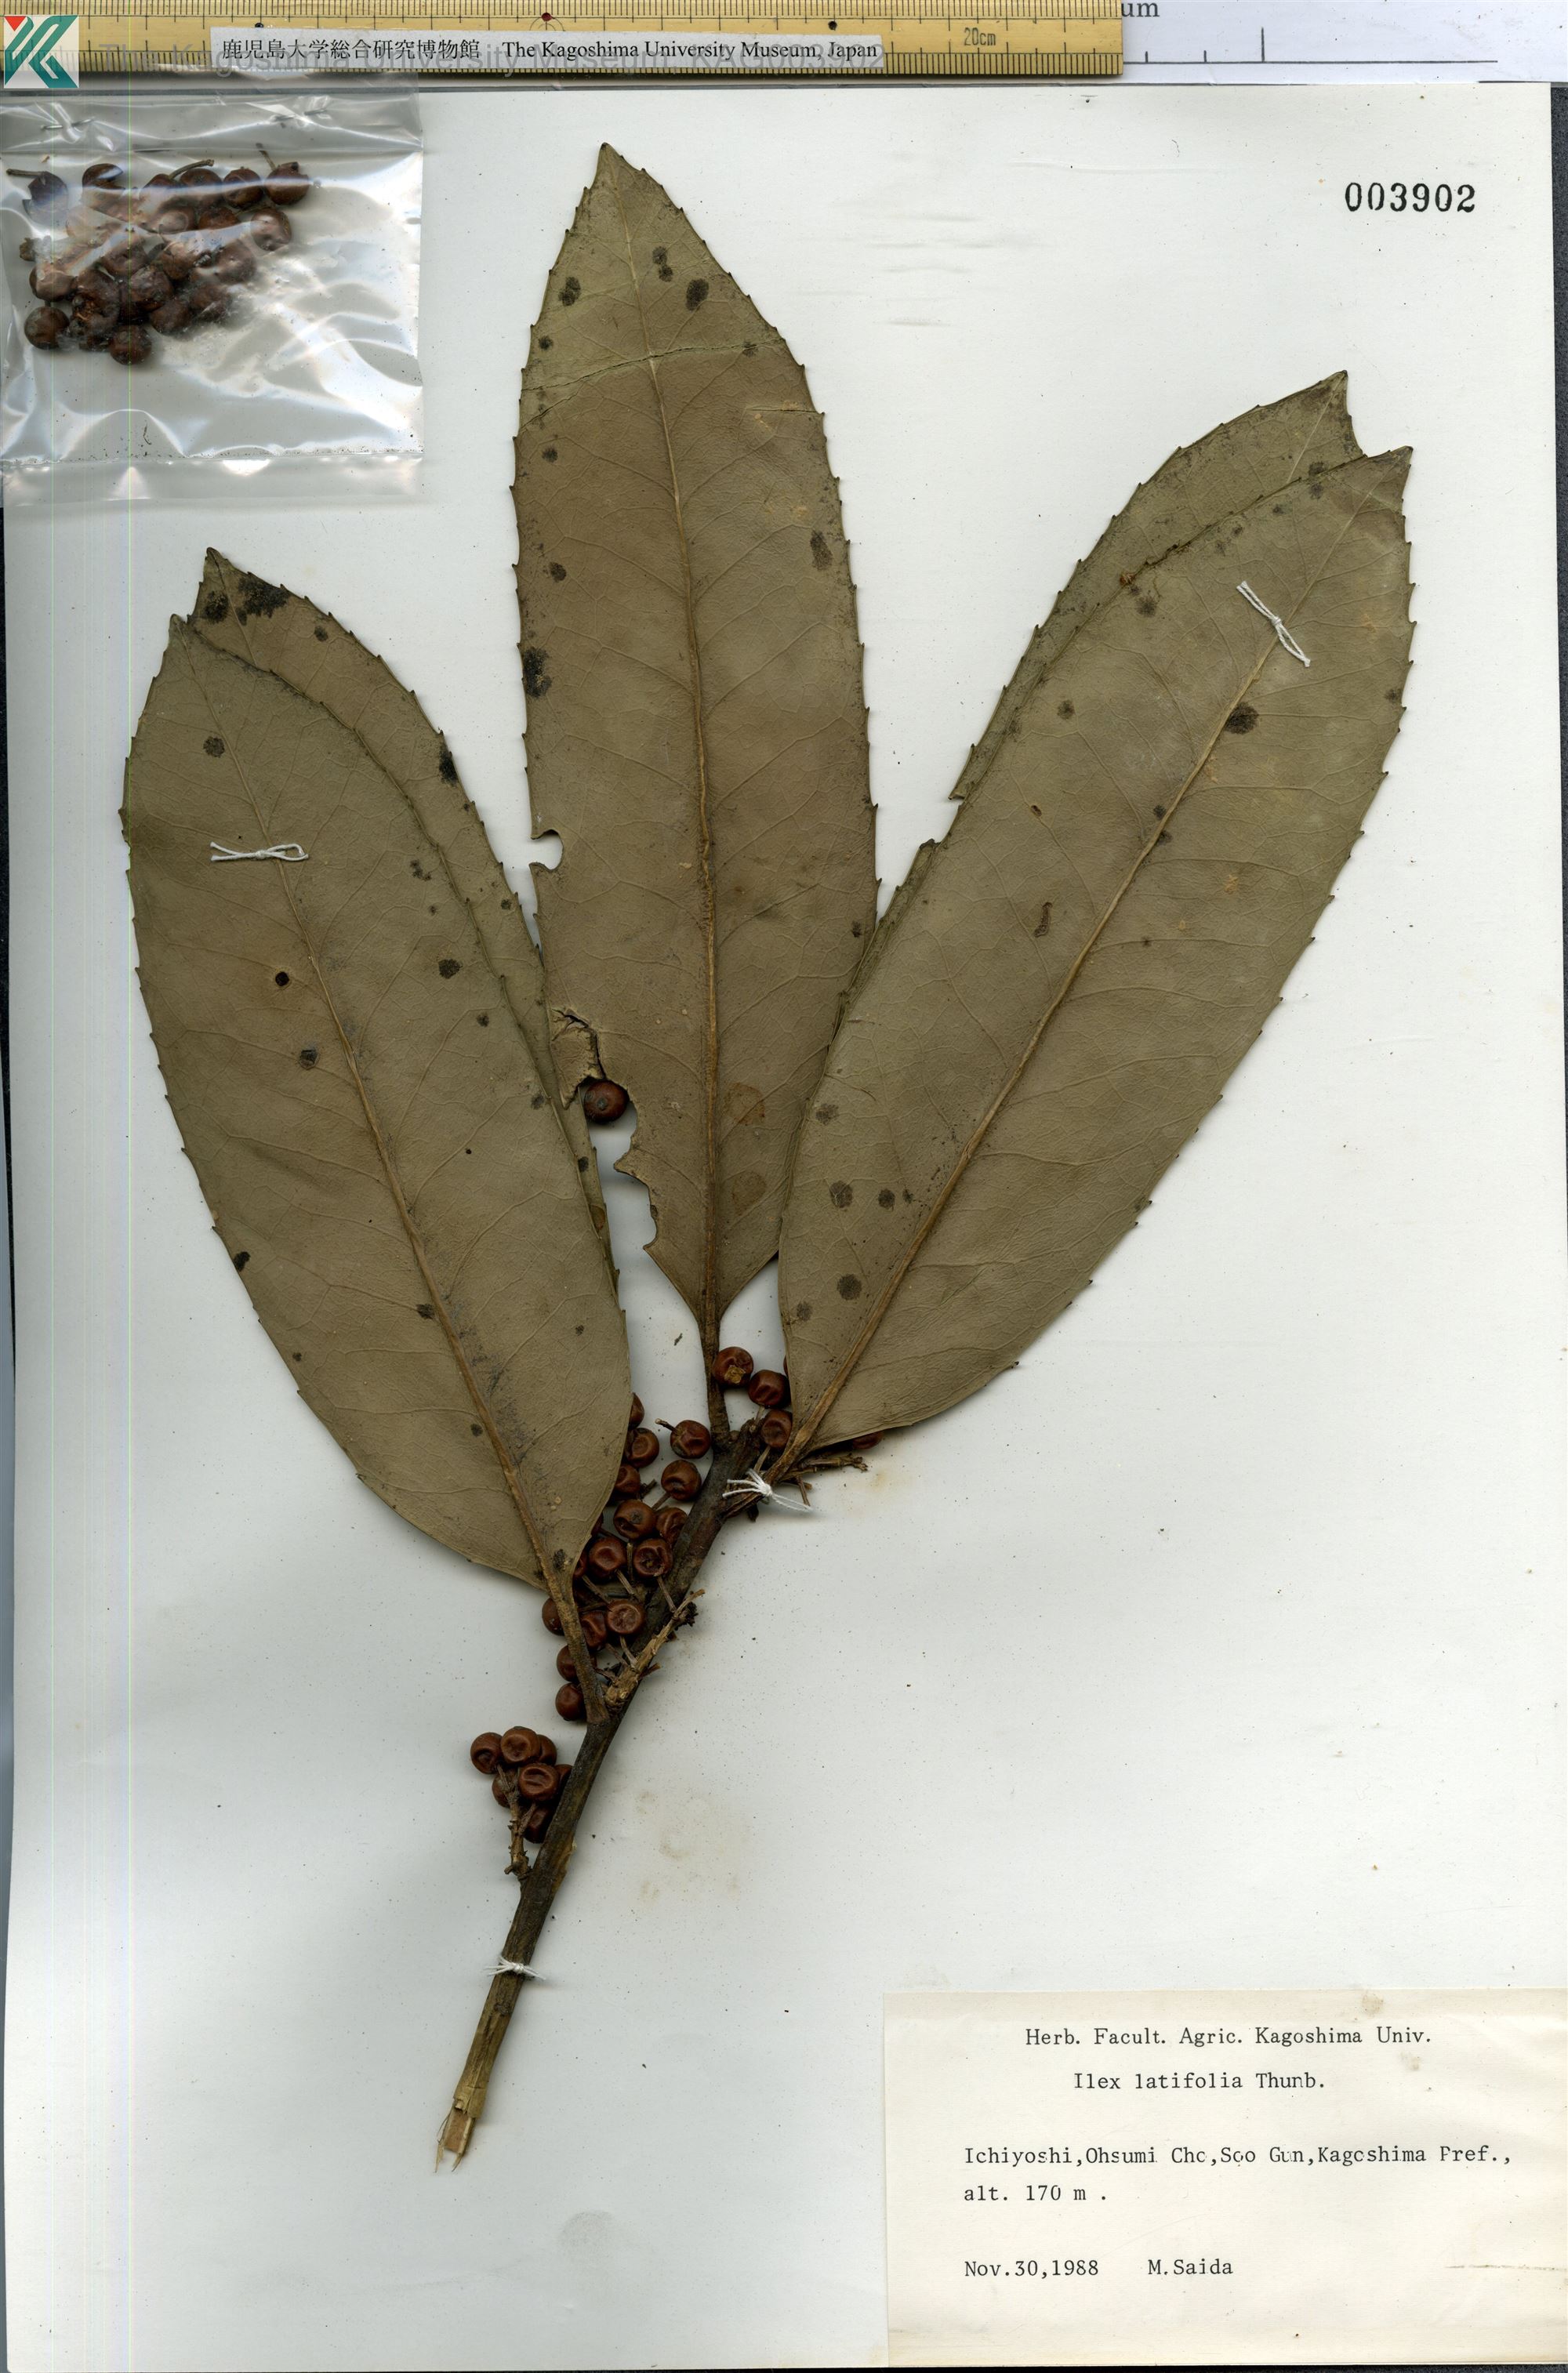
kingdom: Plantae
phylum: Tracheophyta
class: Magnoliopsida
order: Aquifoliales
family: Aquifoliaceae
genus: Ilex
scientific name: Ilex latifolia
